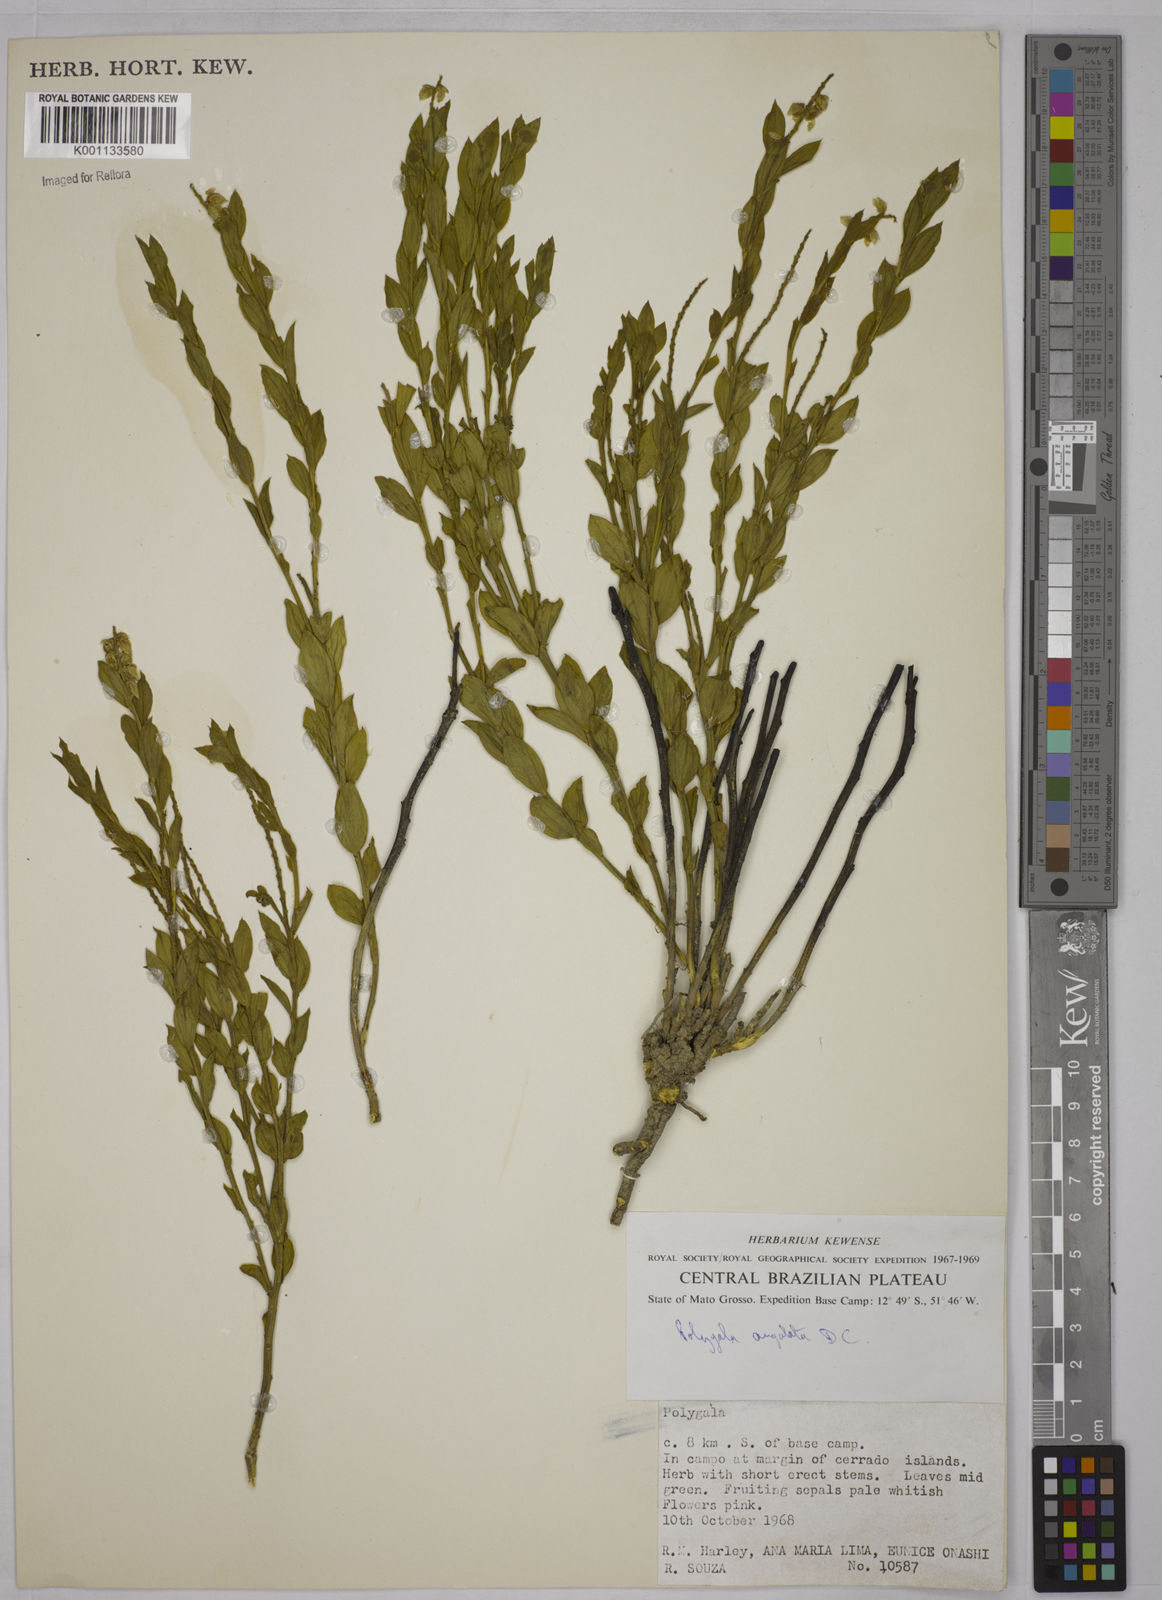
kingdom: Plantae
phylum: Tracheophyta
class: Magnoliopsida
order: Fabales
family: Polygalaceae
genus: Polygala
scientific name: Polygala poaya
